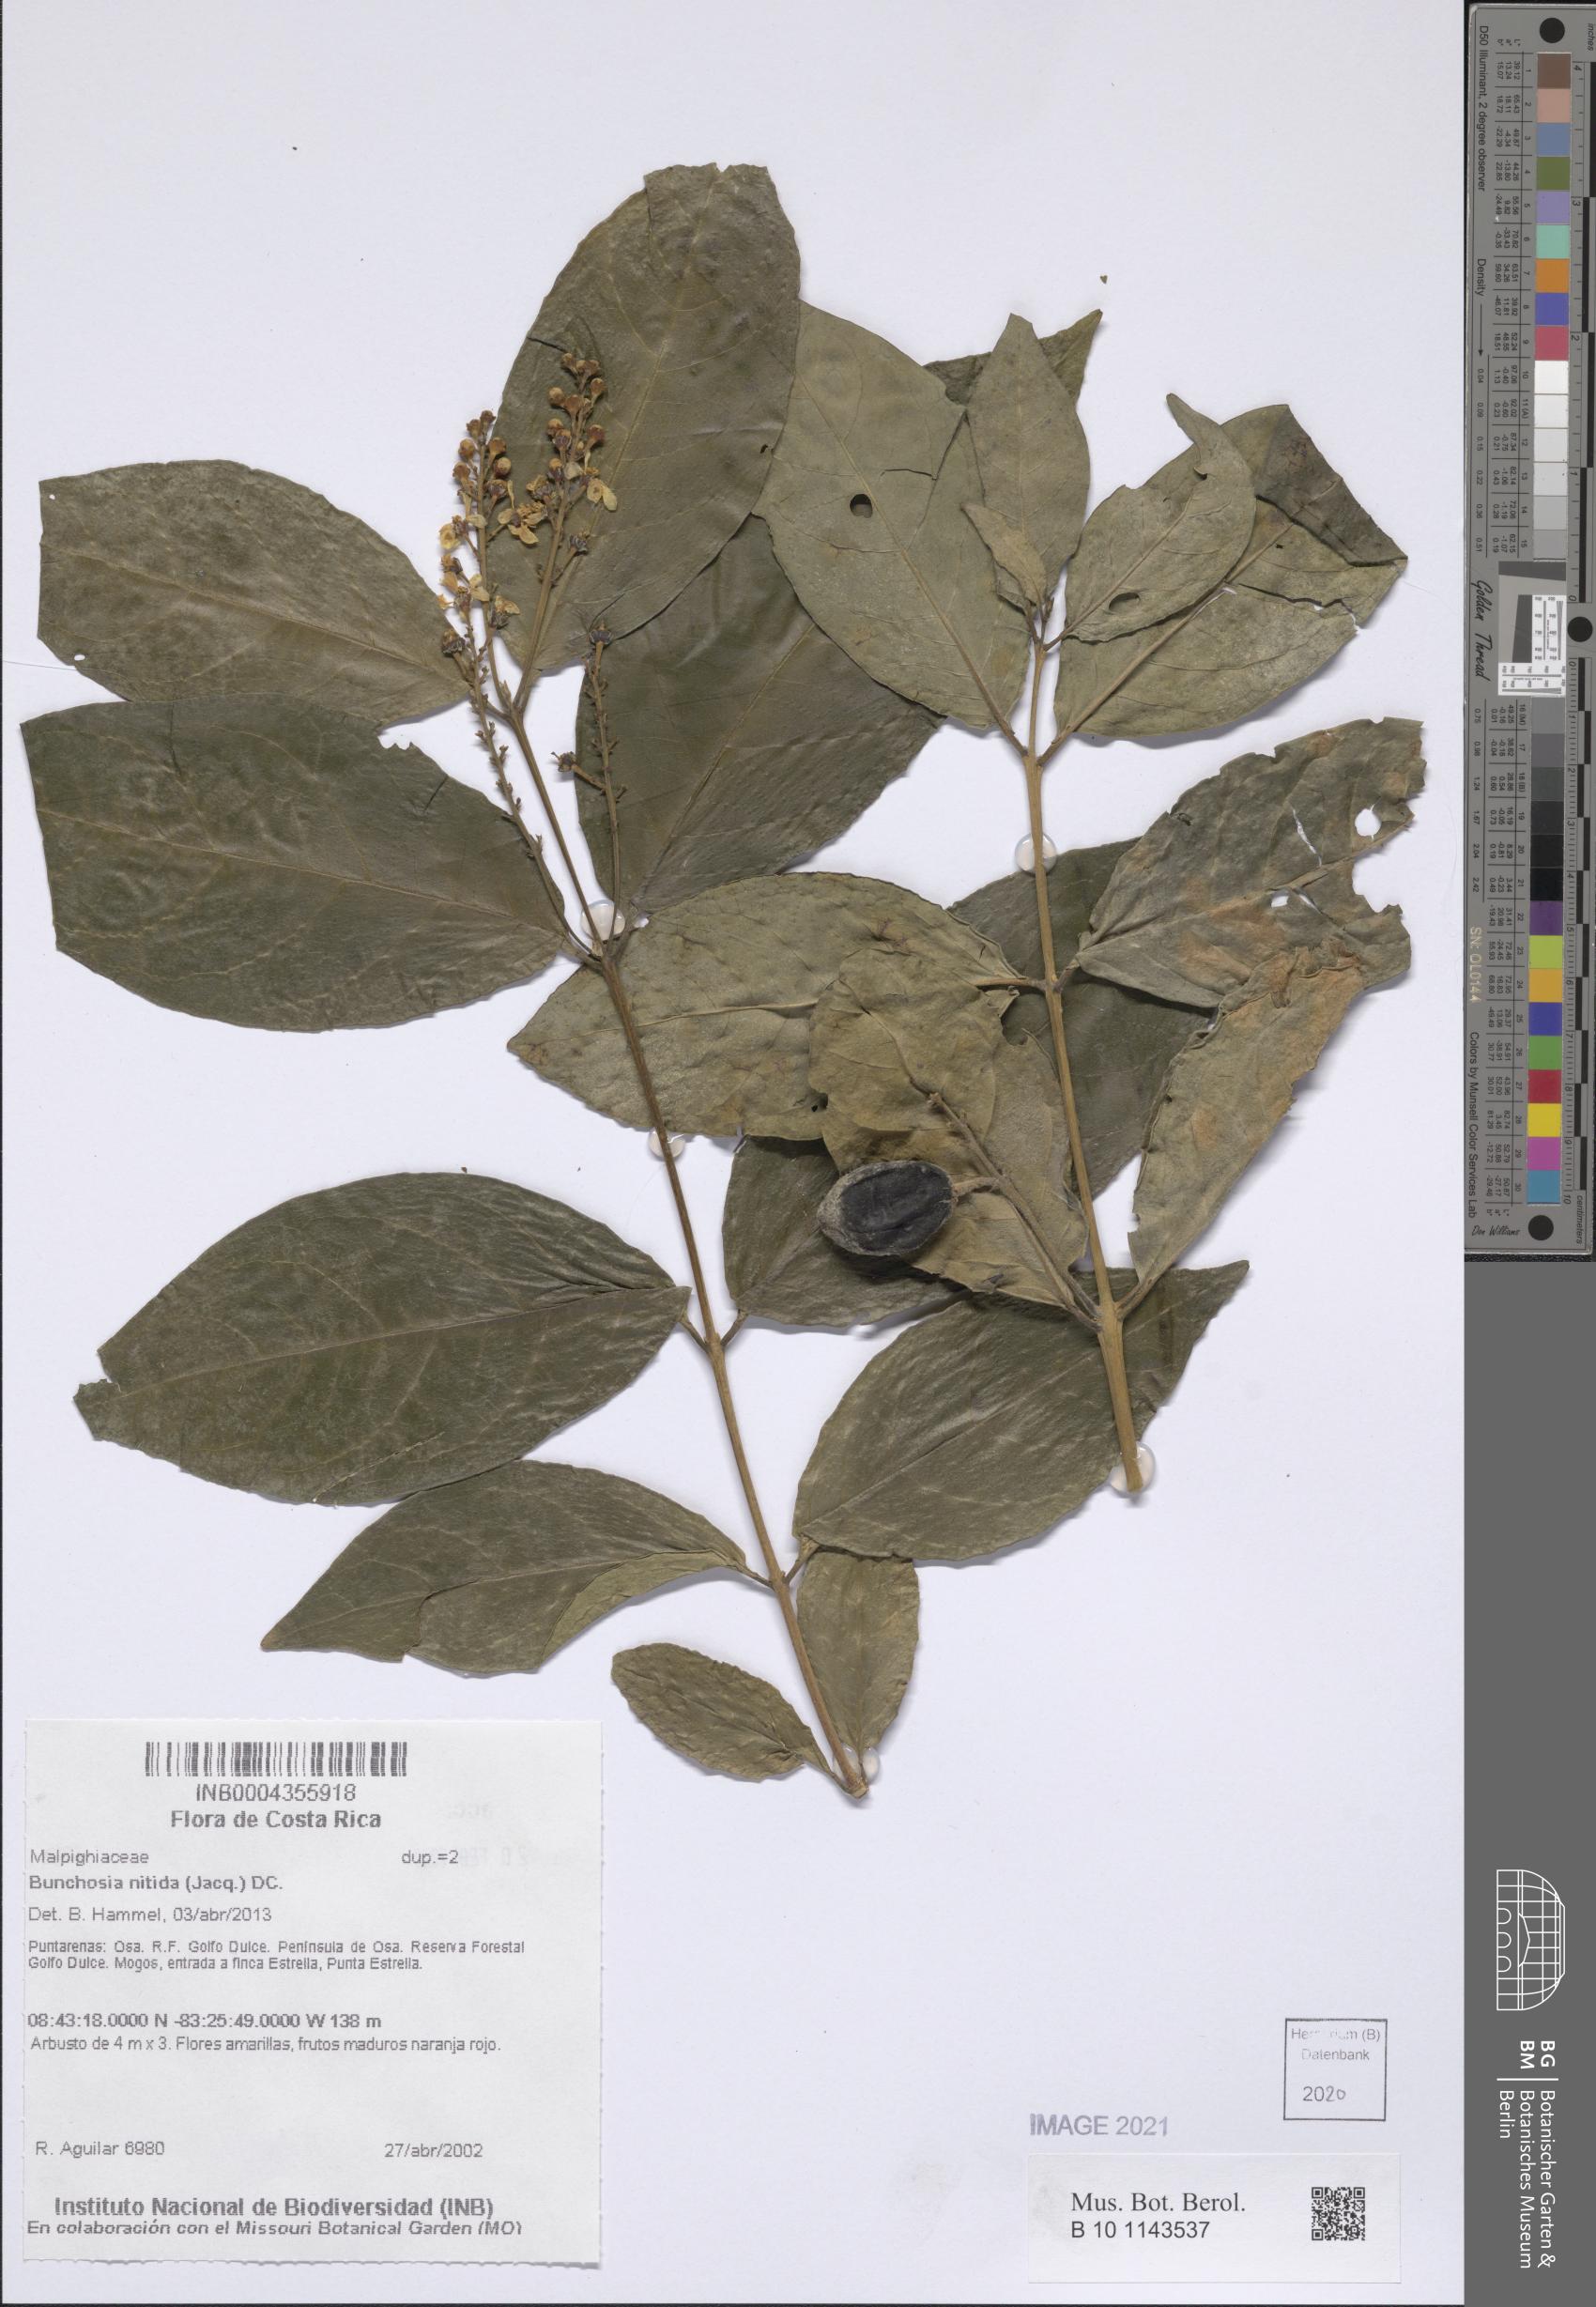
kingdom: Plantae
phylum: Tracheophyta
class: Magnoliopsida
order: Malpighiales
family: Malpighiaceae
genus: Bunchosia
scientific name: Bunchosia nitida
